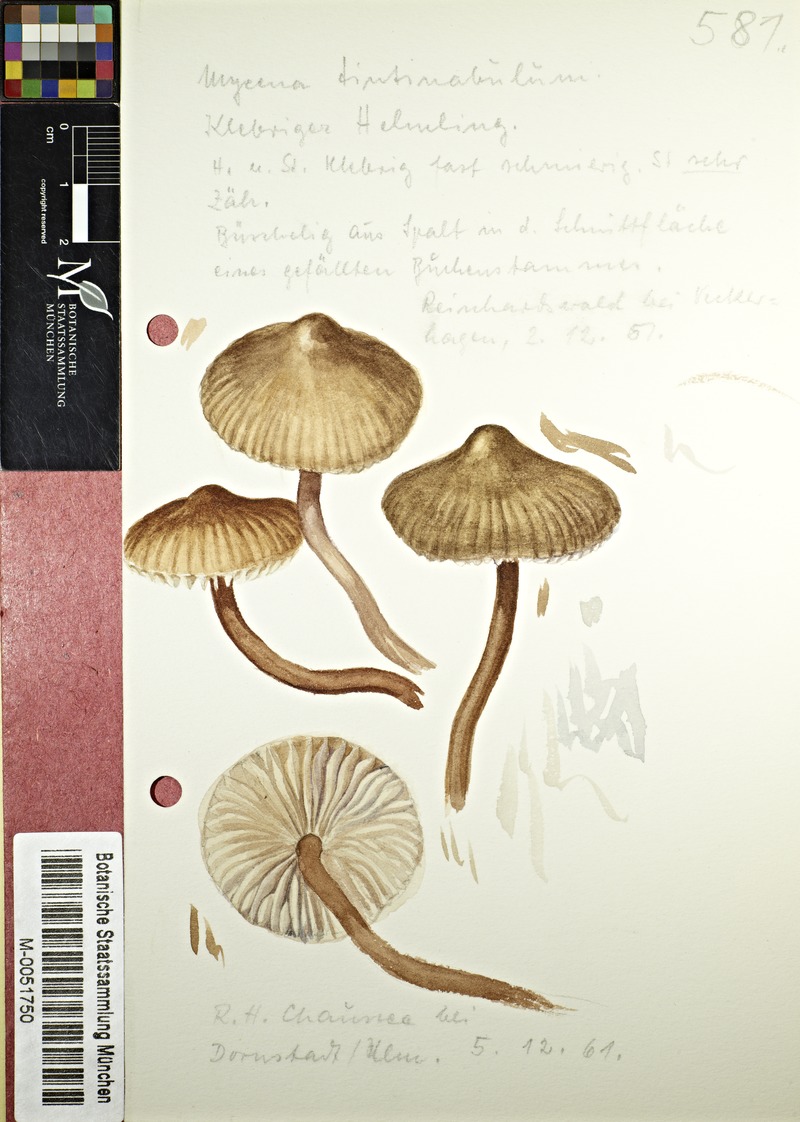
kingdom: Fungi
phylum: Basidiomycota
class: Agaricomycetes
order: Agaricales
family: Mycenaceae
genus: Mycena
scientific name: Mycena tintinnabulum
